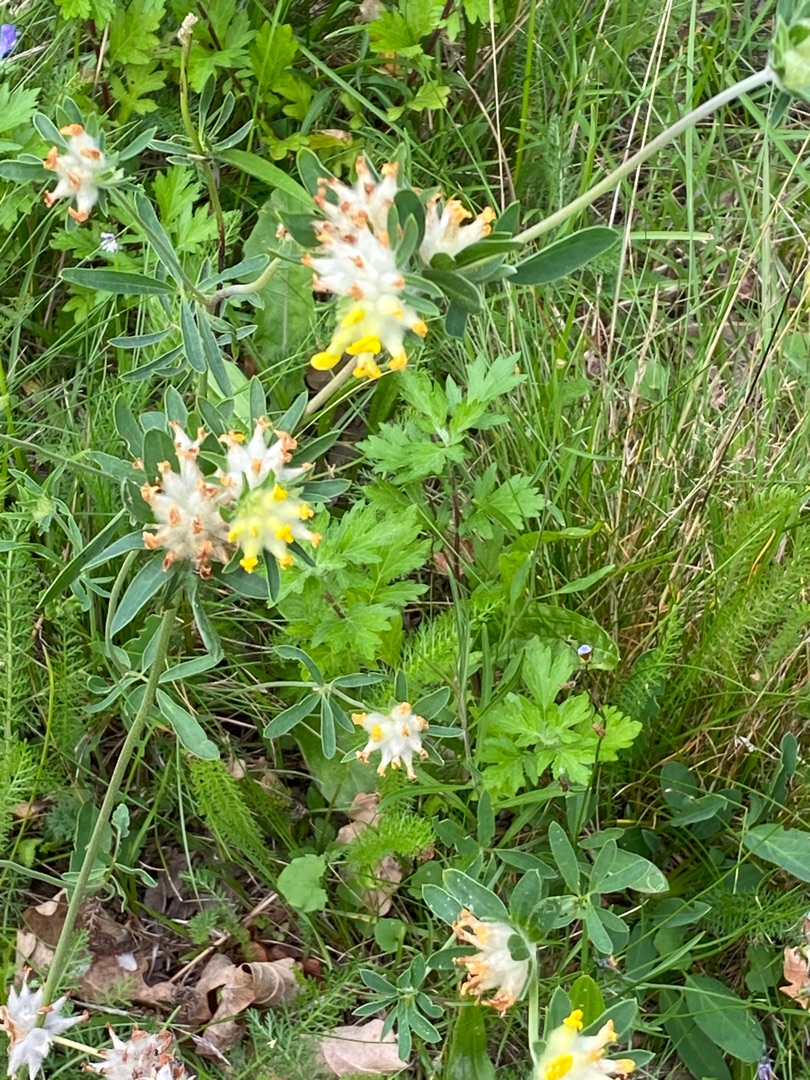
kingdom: Plantae
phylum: Tracheophyta
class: Magnoliopsida
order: Fabales
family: Fabaceae
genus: Anthyllis
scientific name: Anthyllis vulneraria
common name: Rundbælg
